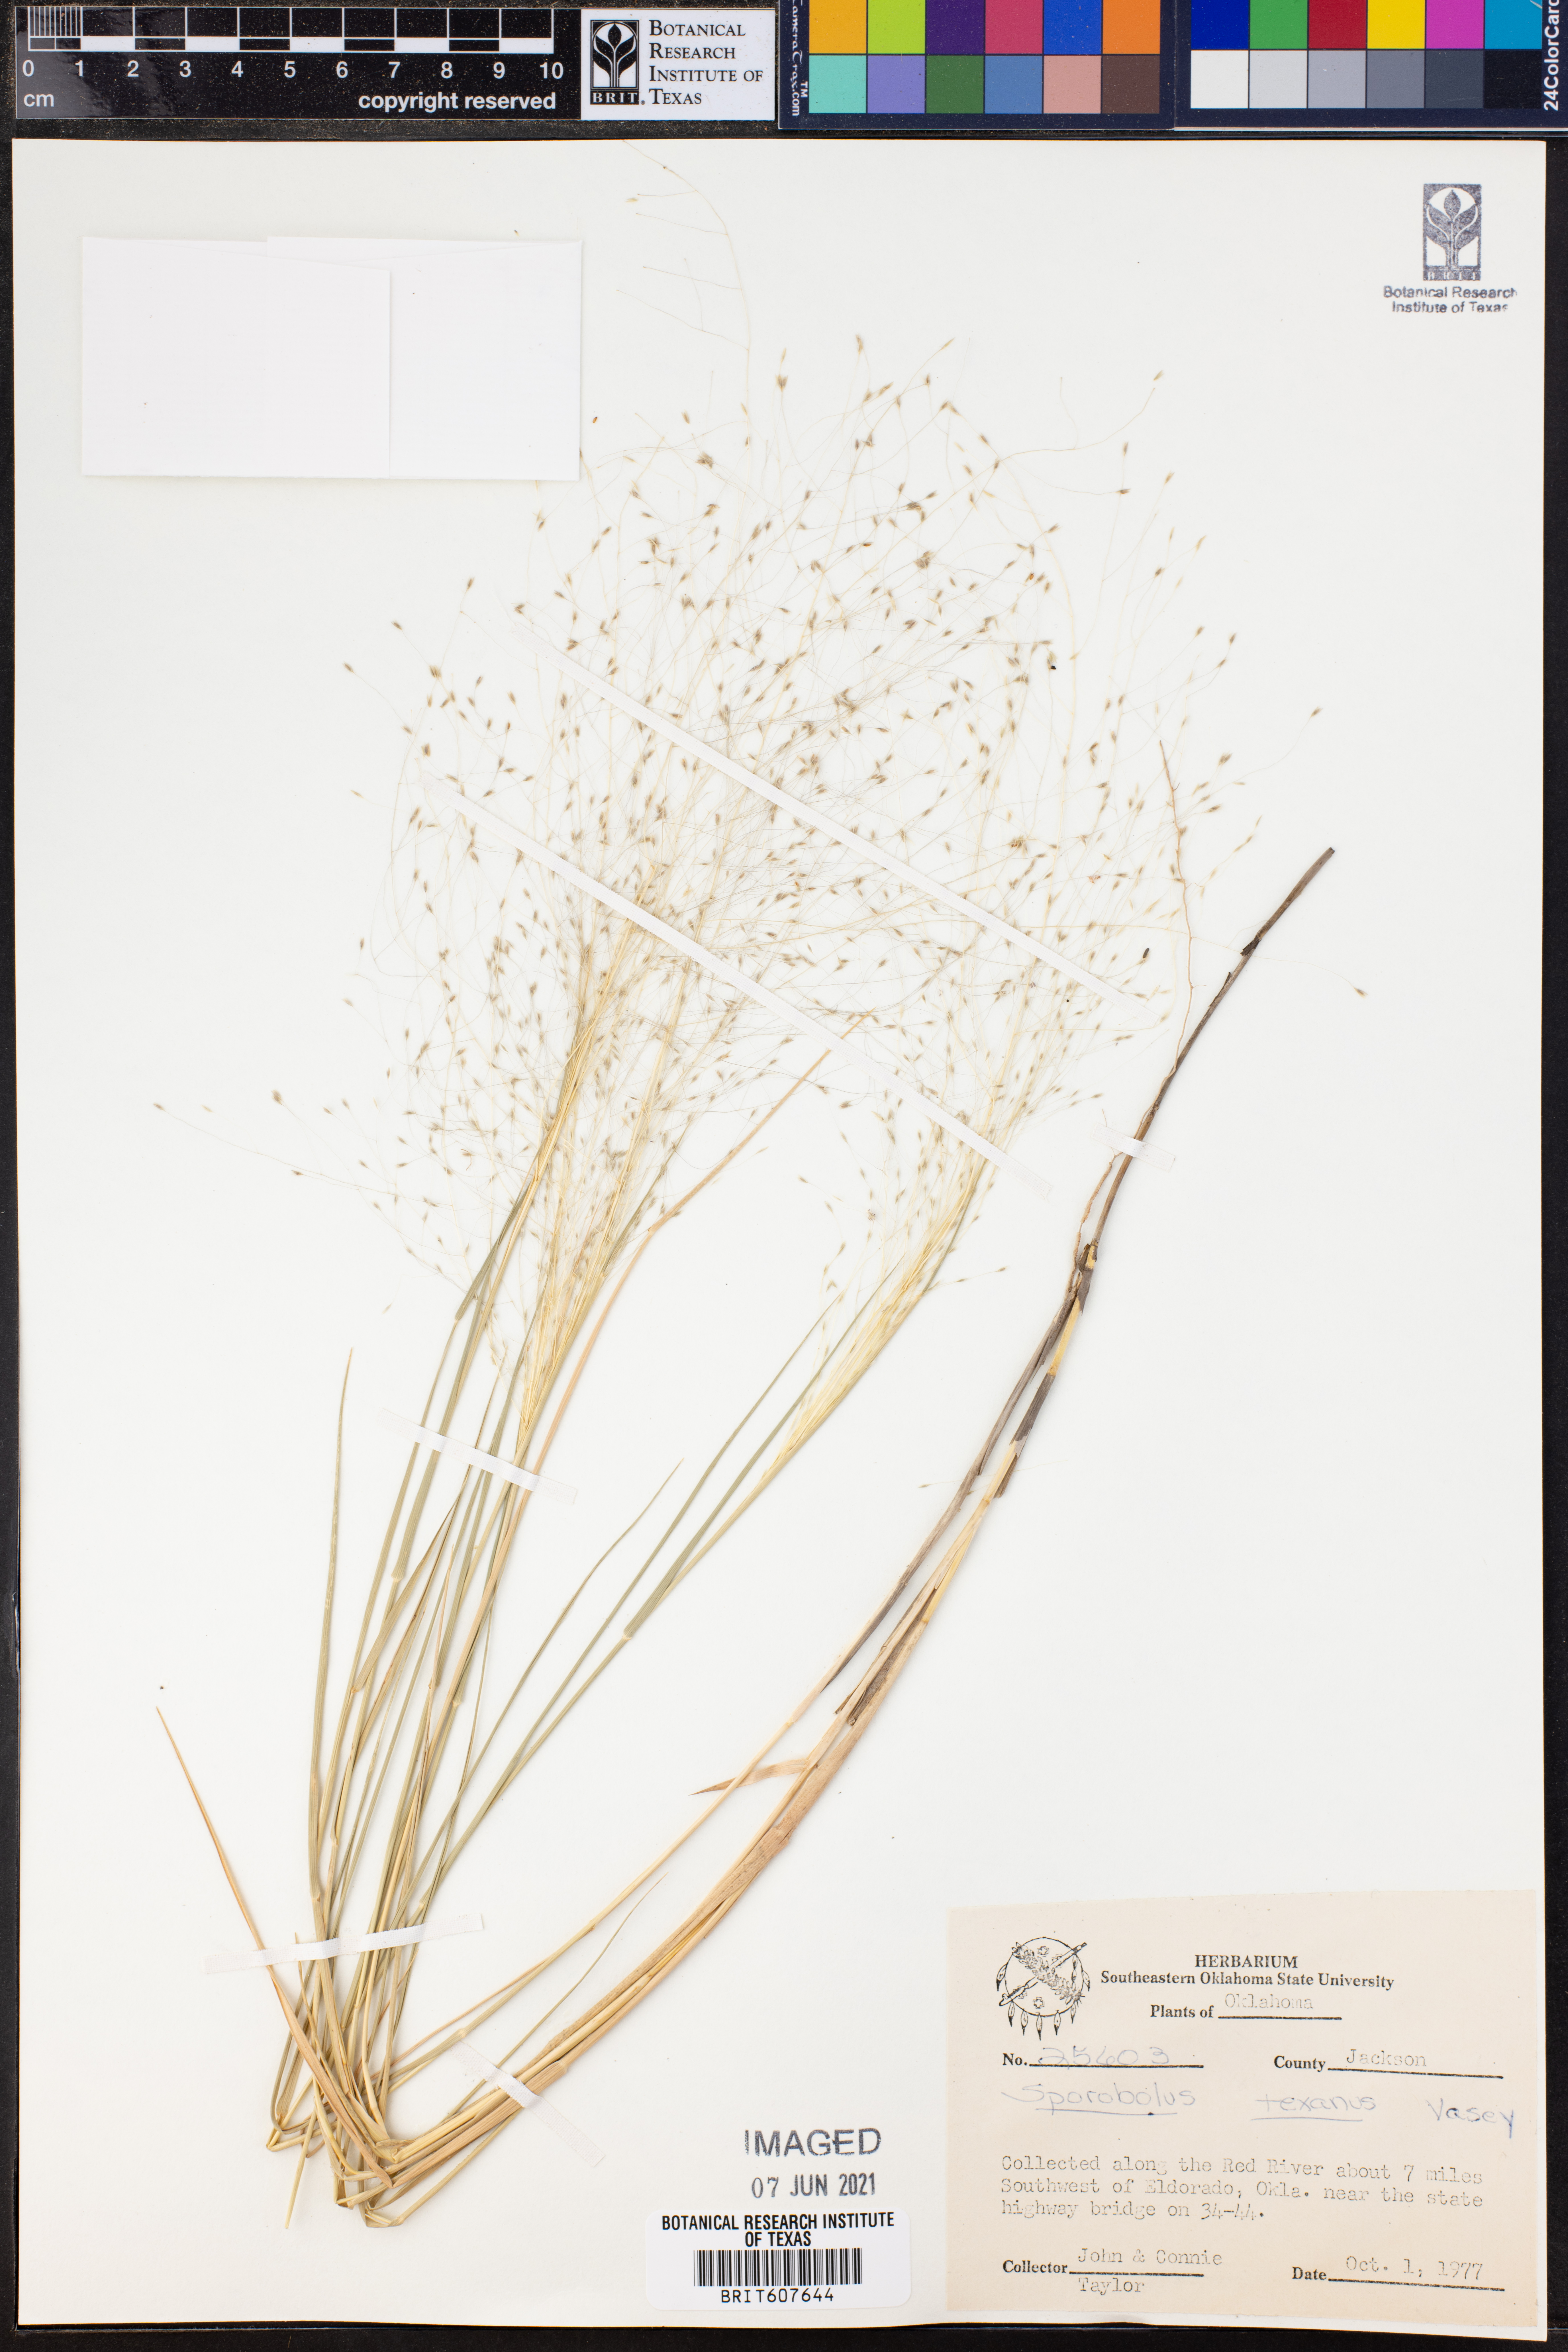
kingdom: Plantae
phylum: Tracheophyta
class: Liliopsida
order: Poales
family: Poaceae
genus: Sporobolus
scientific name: Sporobolus texanus
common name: Texas dropseed
